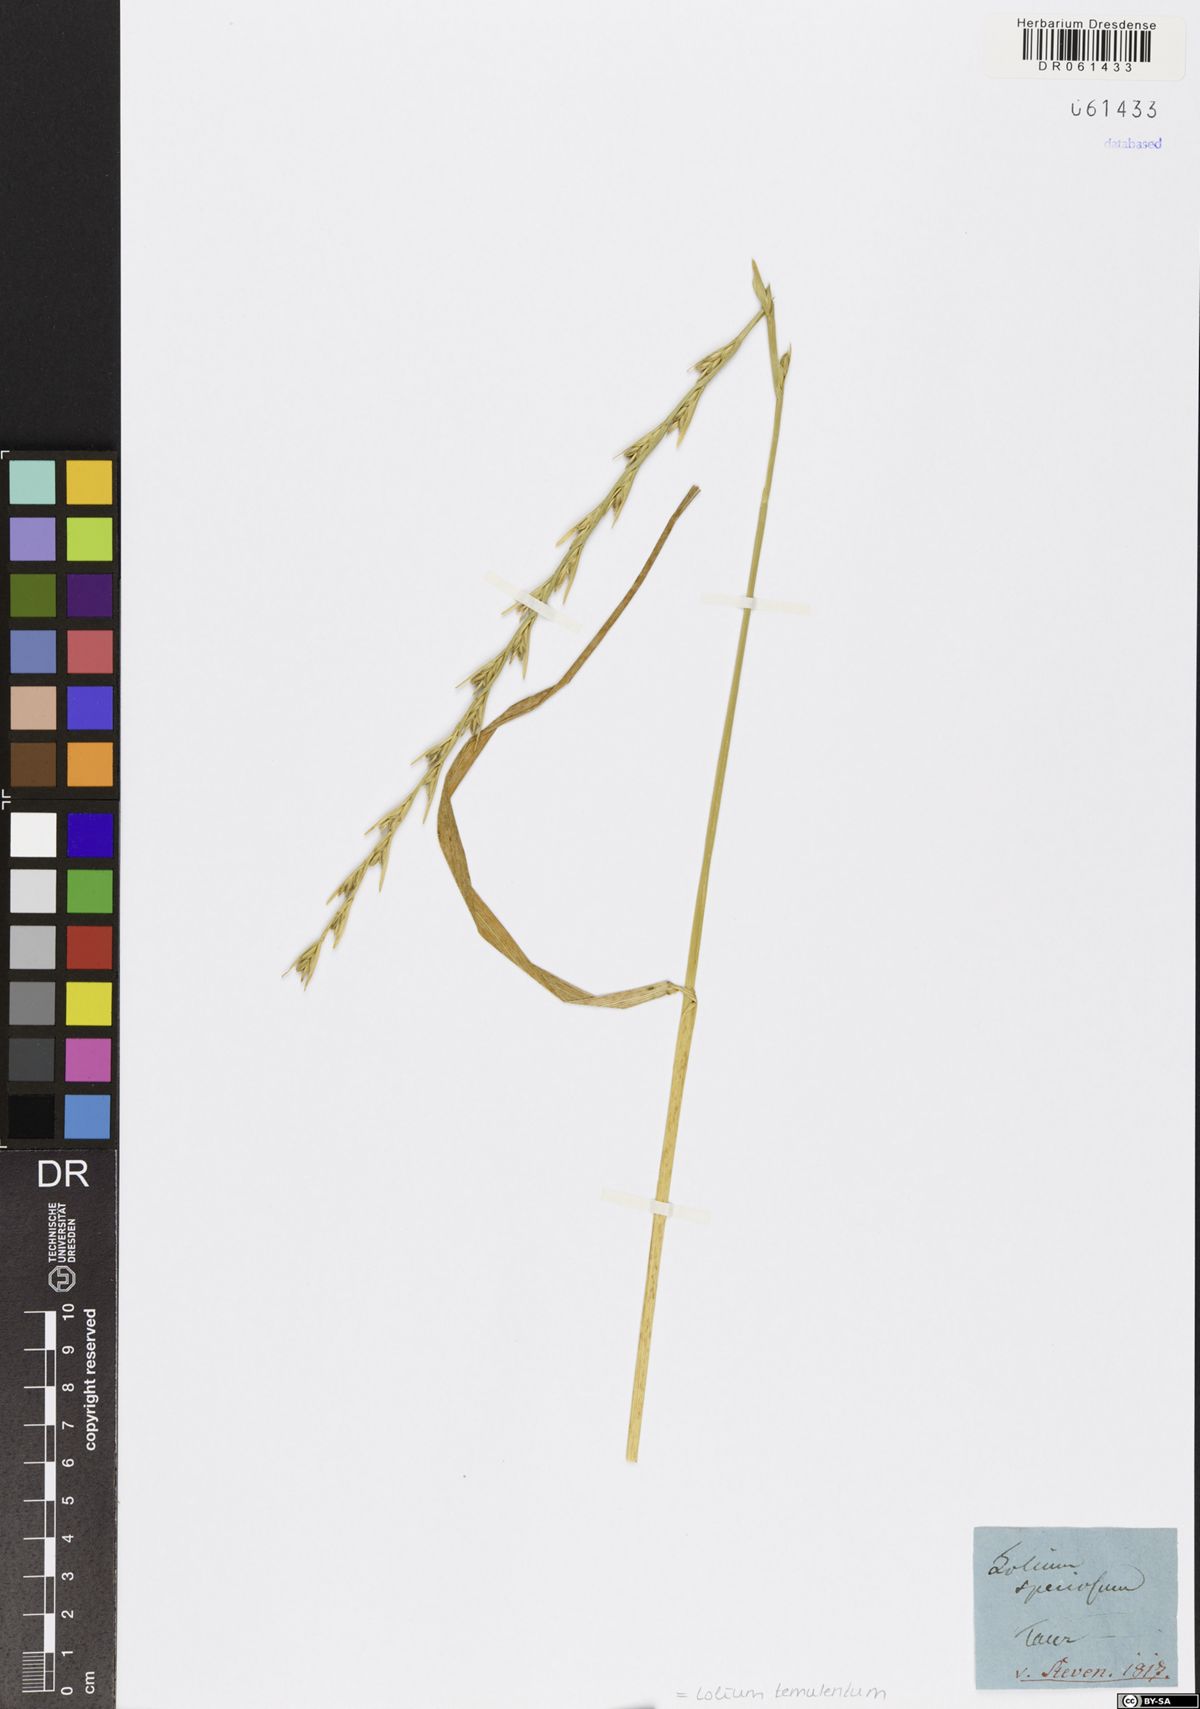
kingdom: Plantae
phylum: Tracheophyta
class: Liliopsida
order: Poales
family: Poaceae
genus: Lolium
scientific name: Lolium temulentum
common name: Darnel
